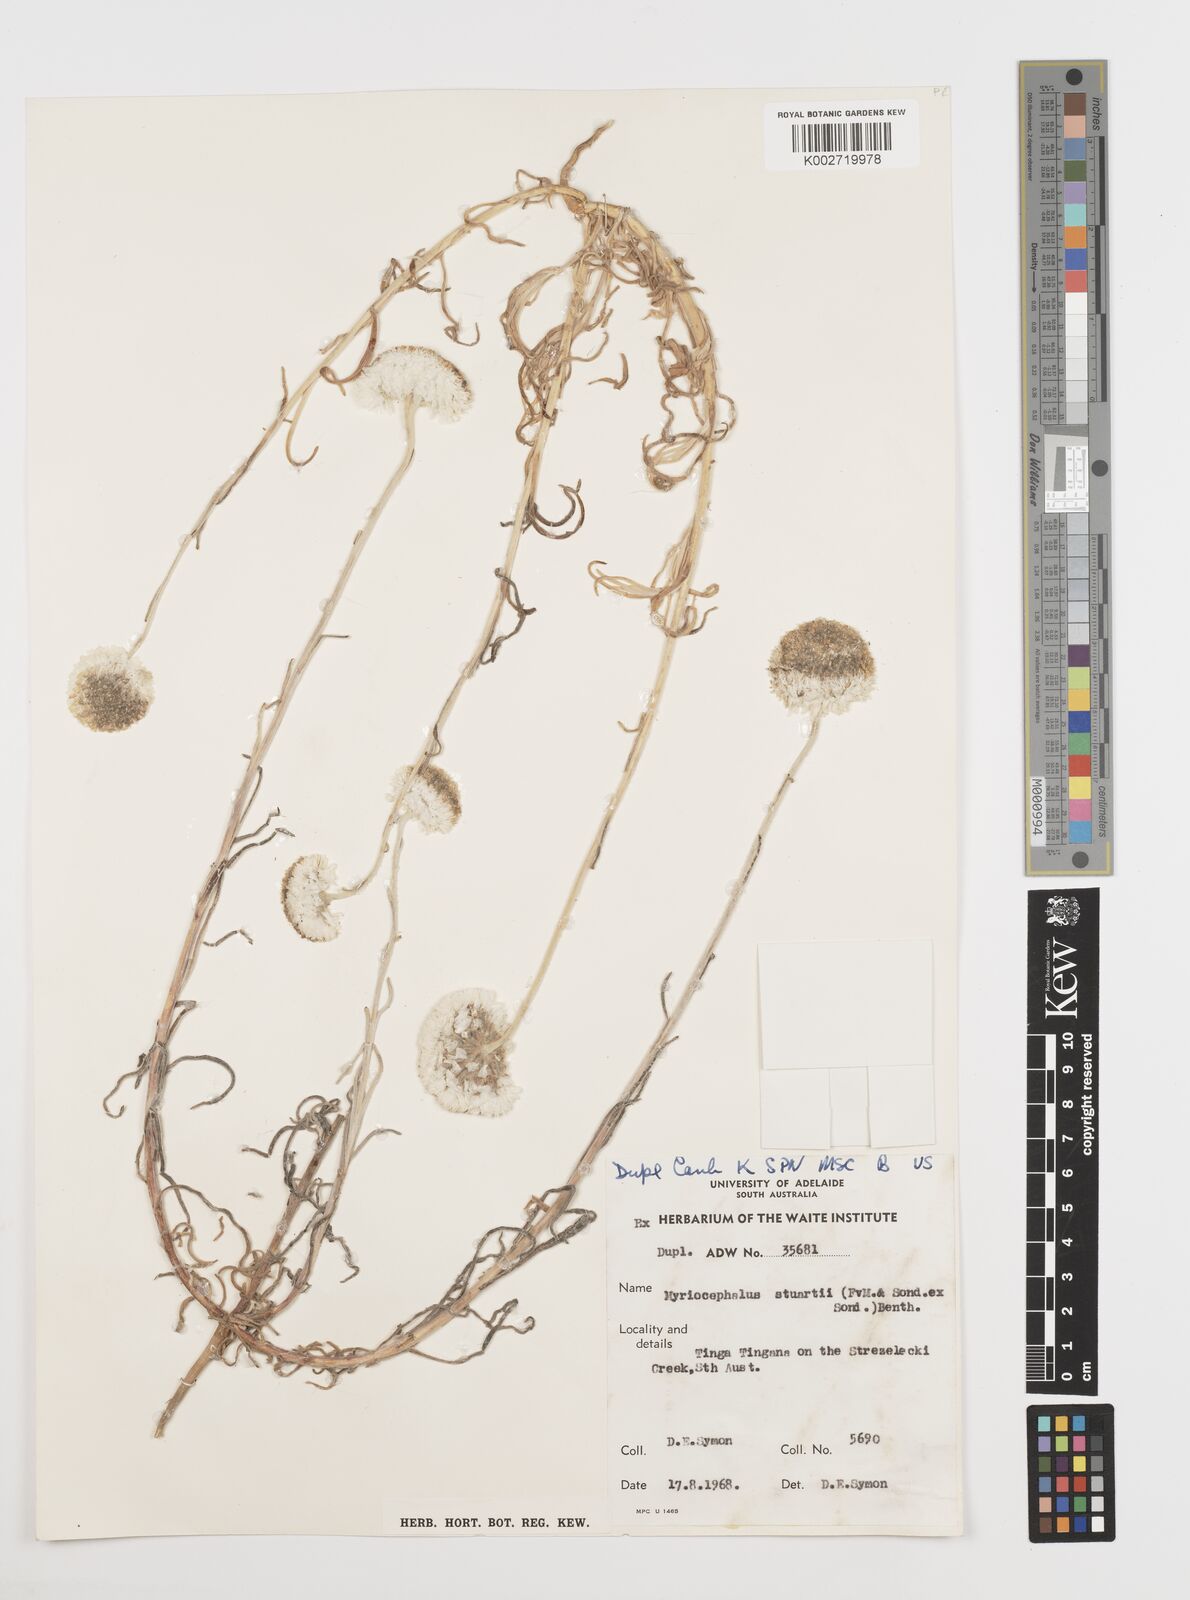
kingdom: Plantae
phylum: Tracheophyta
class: Magnoliopsida
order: Asterales
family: Asteraceae
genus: Polycalymma
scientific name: Polycalymma stuartii
